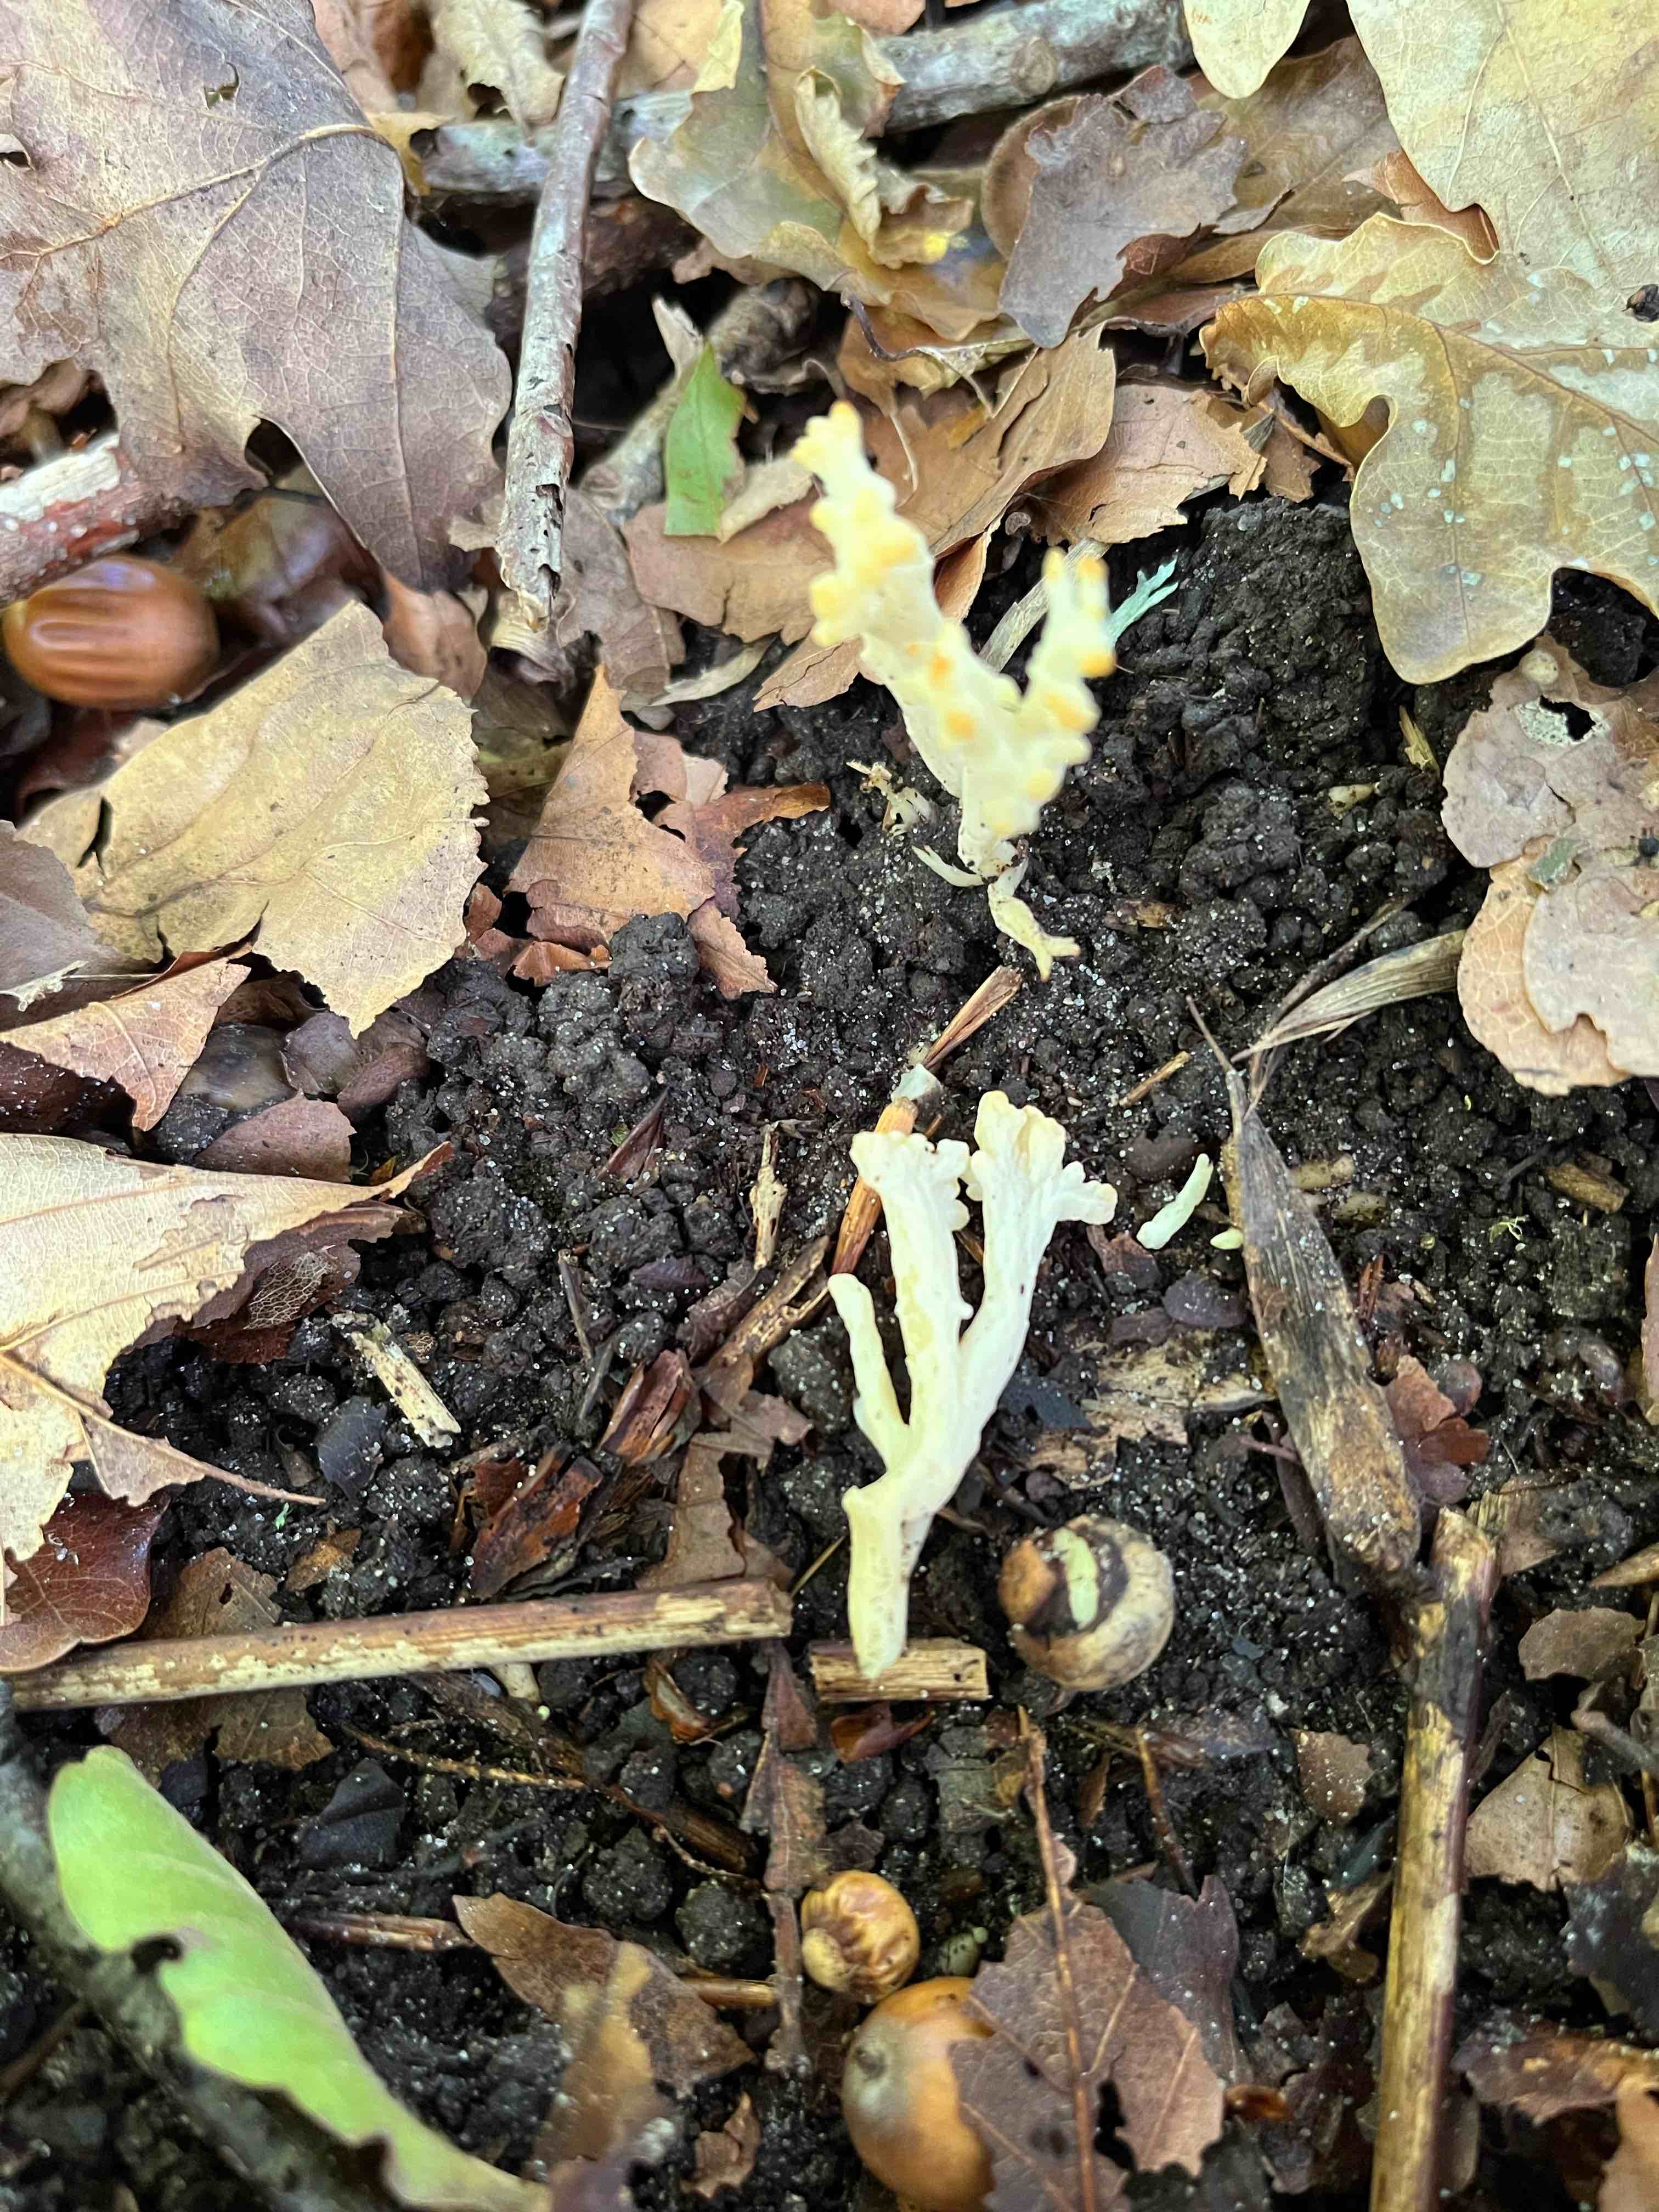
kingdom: Fungi
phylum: Basidiomycota
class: Agaricomycetes
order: Cantharellales
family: Hydnaceae
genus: Clavulina
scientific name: Clavulina
